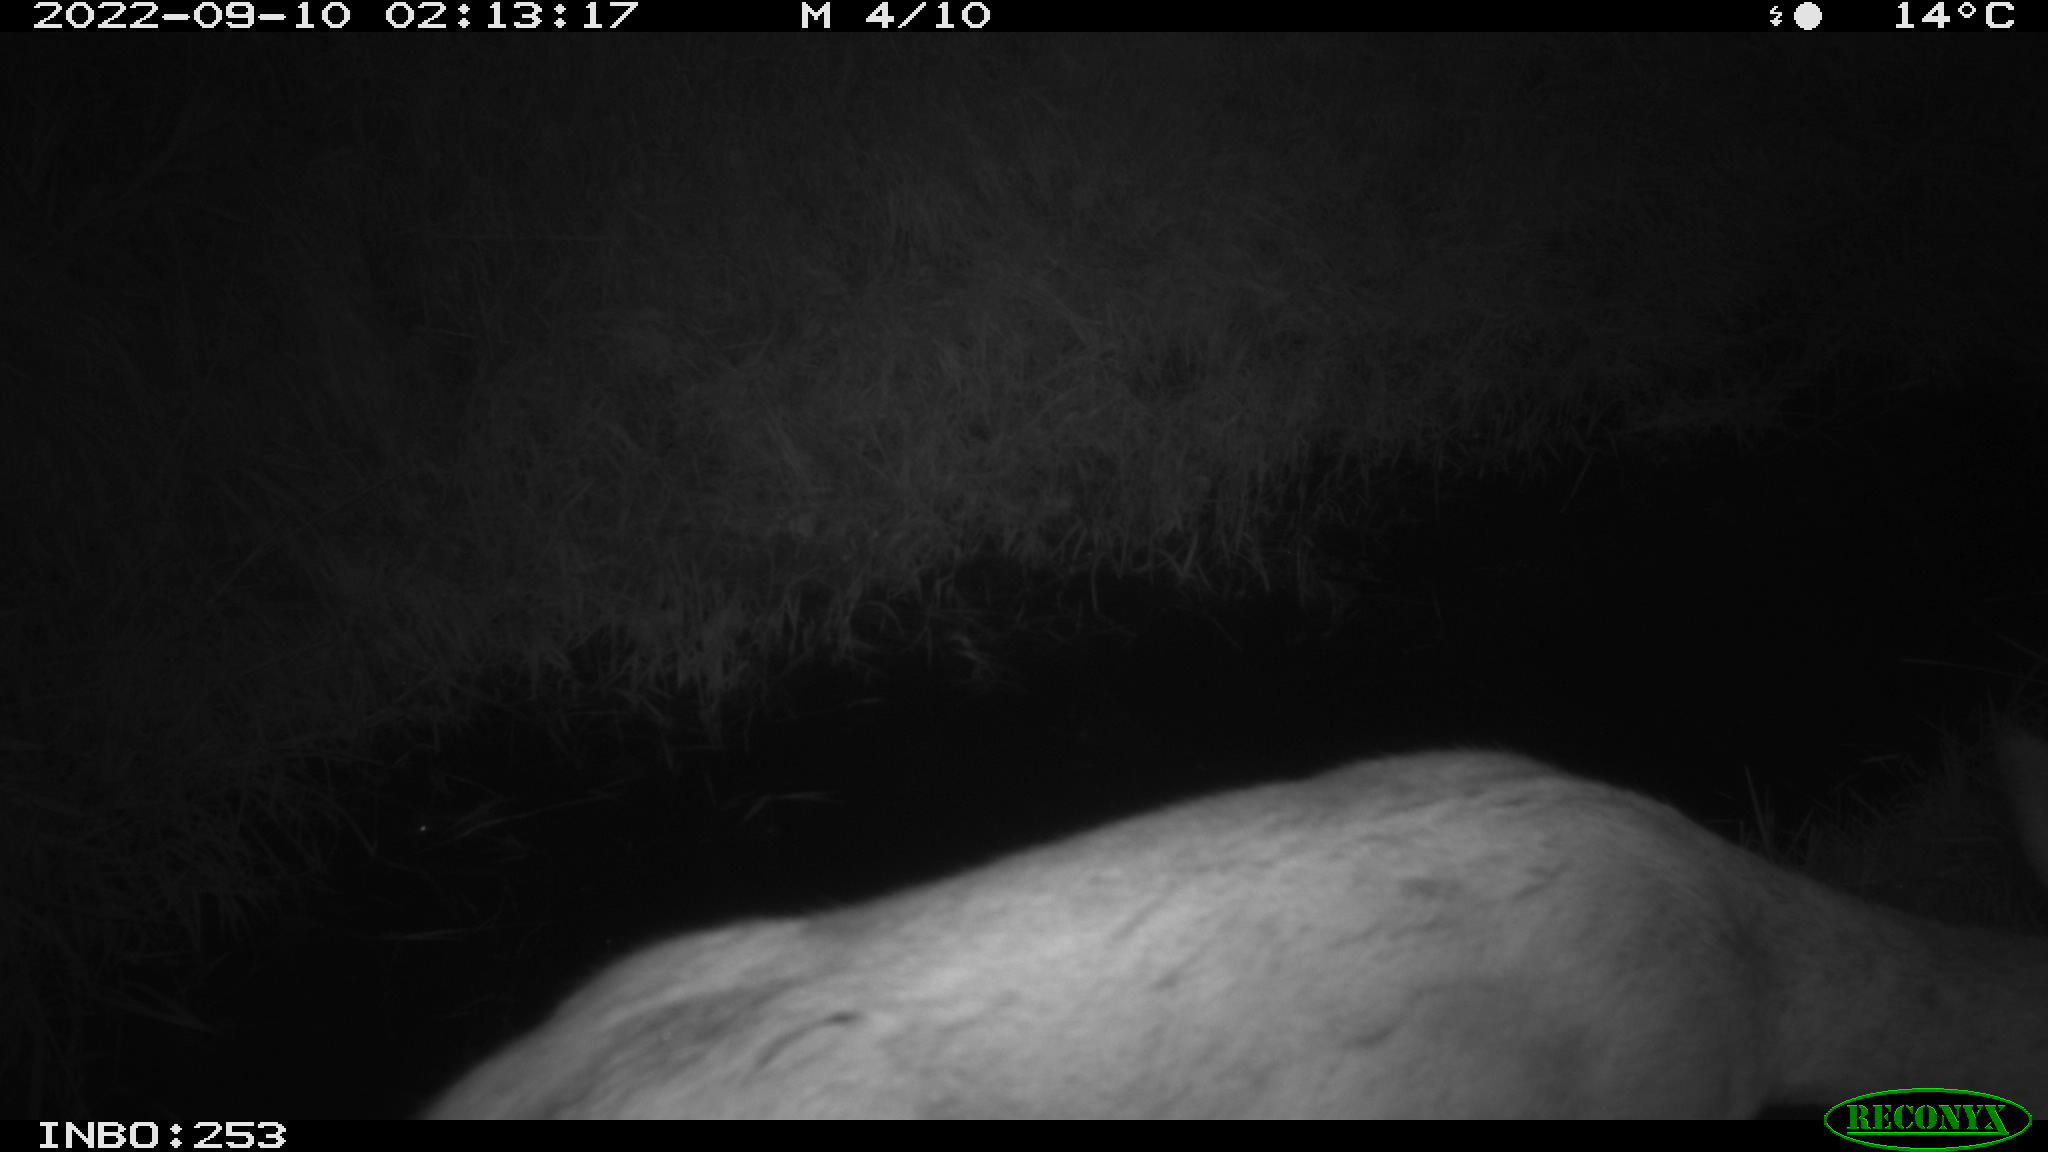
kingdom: Animalia
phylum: Chordata
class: Mammalia
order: Artiodactyla
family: Cervidae
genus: Capreolus
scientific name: Capreolus capreolus
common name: Western roe deer
